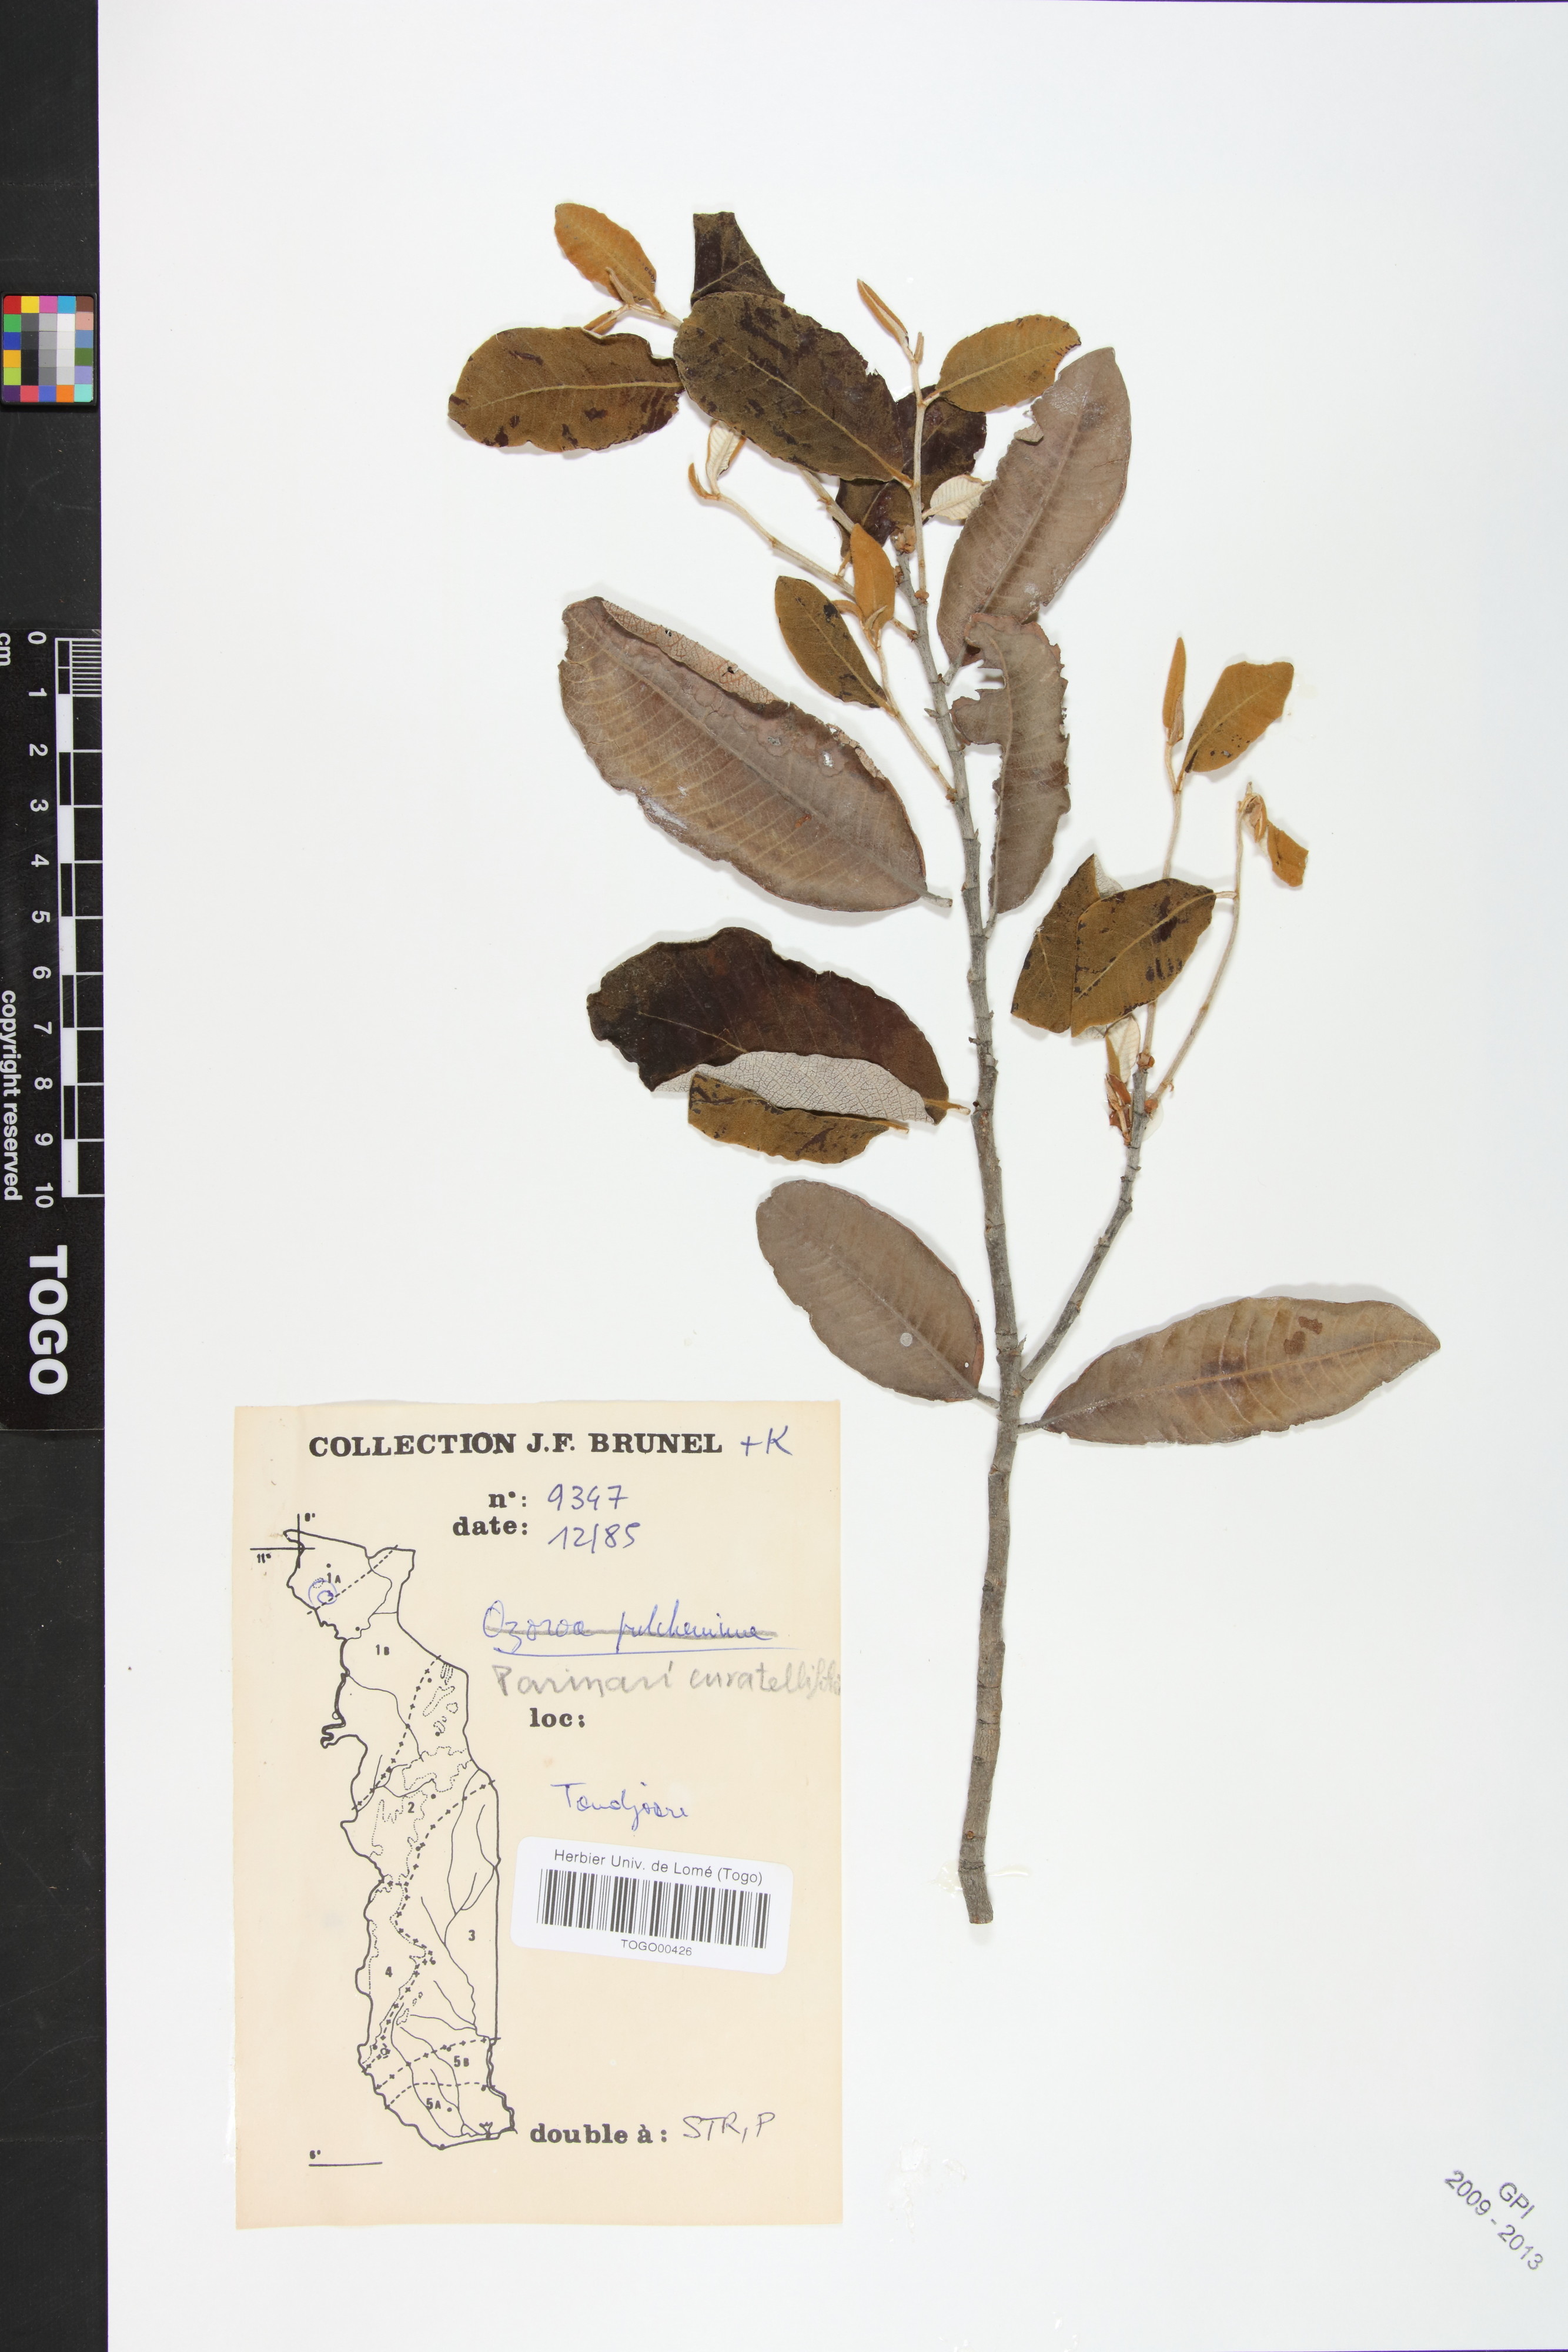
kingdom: Plantae
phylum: Tracheophyta
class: Magnoliopsida
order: Malpighiales
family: Chrysobalanaceae
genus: Parinari
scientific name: Parinari curatellifolia
